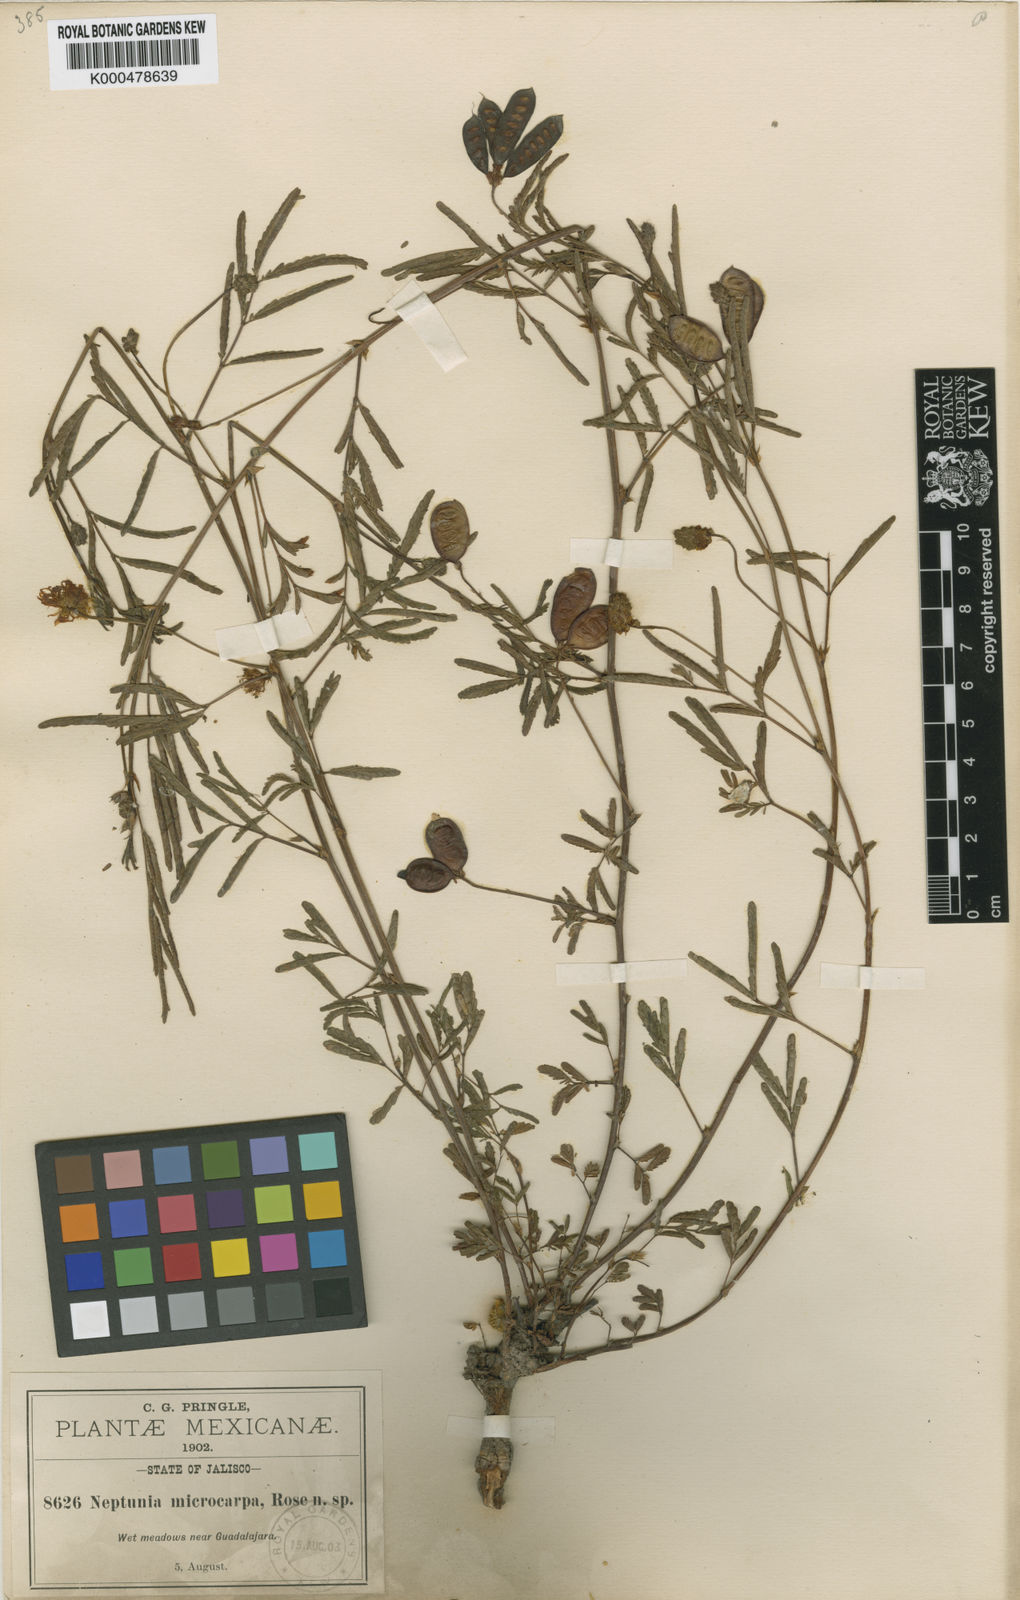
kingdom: Plantae
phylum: Tracheophyta
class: Magnoliopsida
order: Fabales
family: Fabaceae
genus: Neptunia
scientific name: Neptunia pubescens
